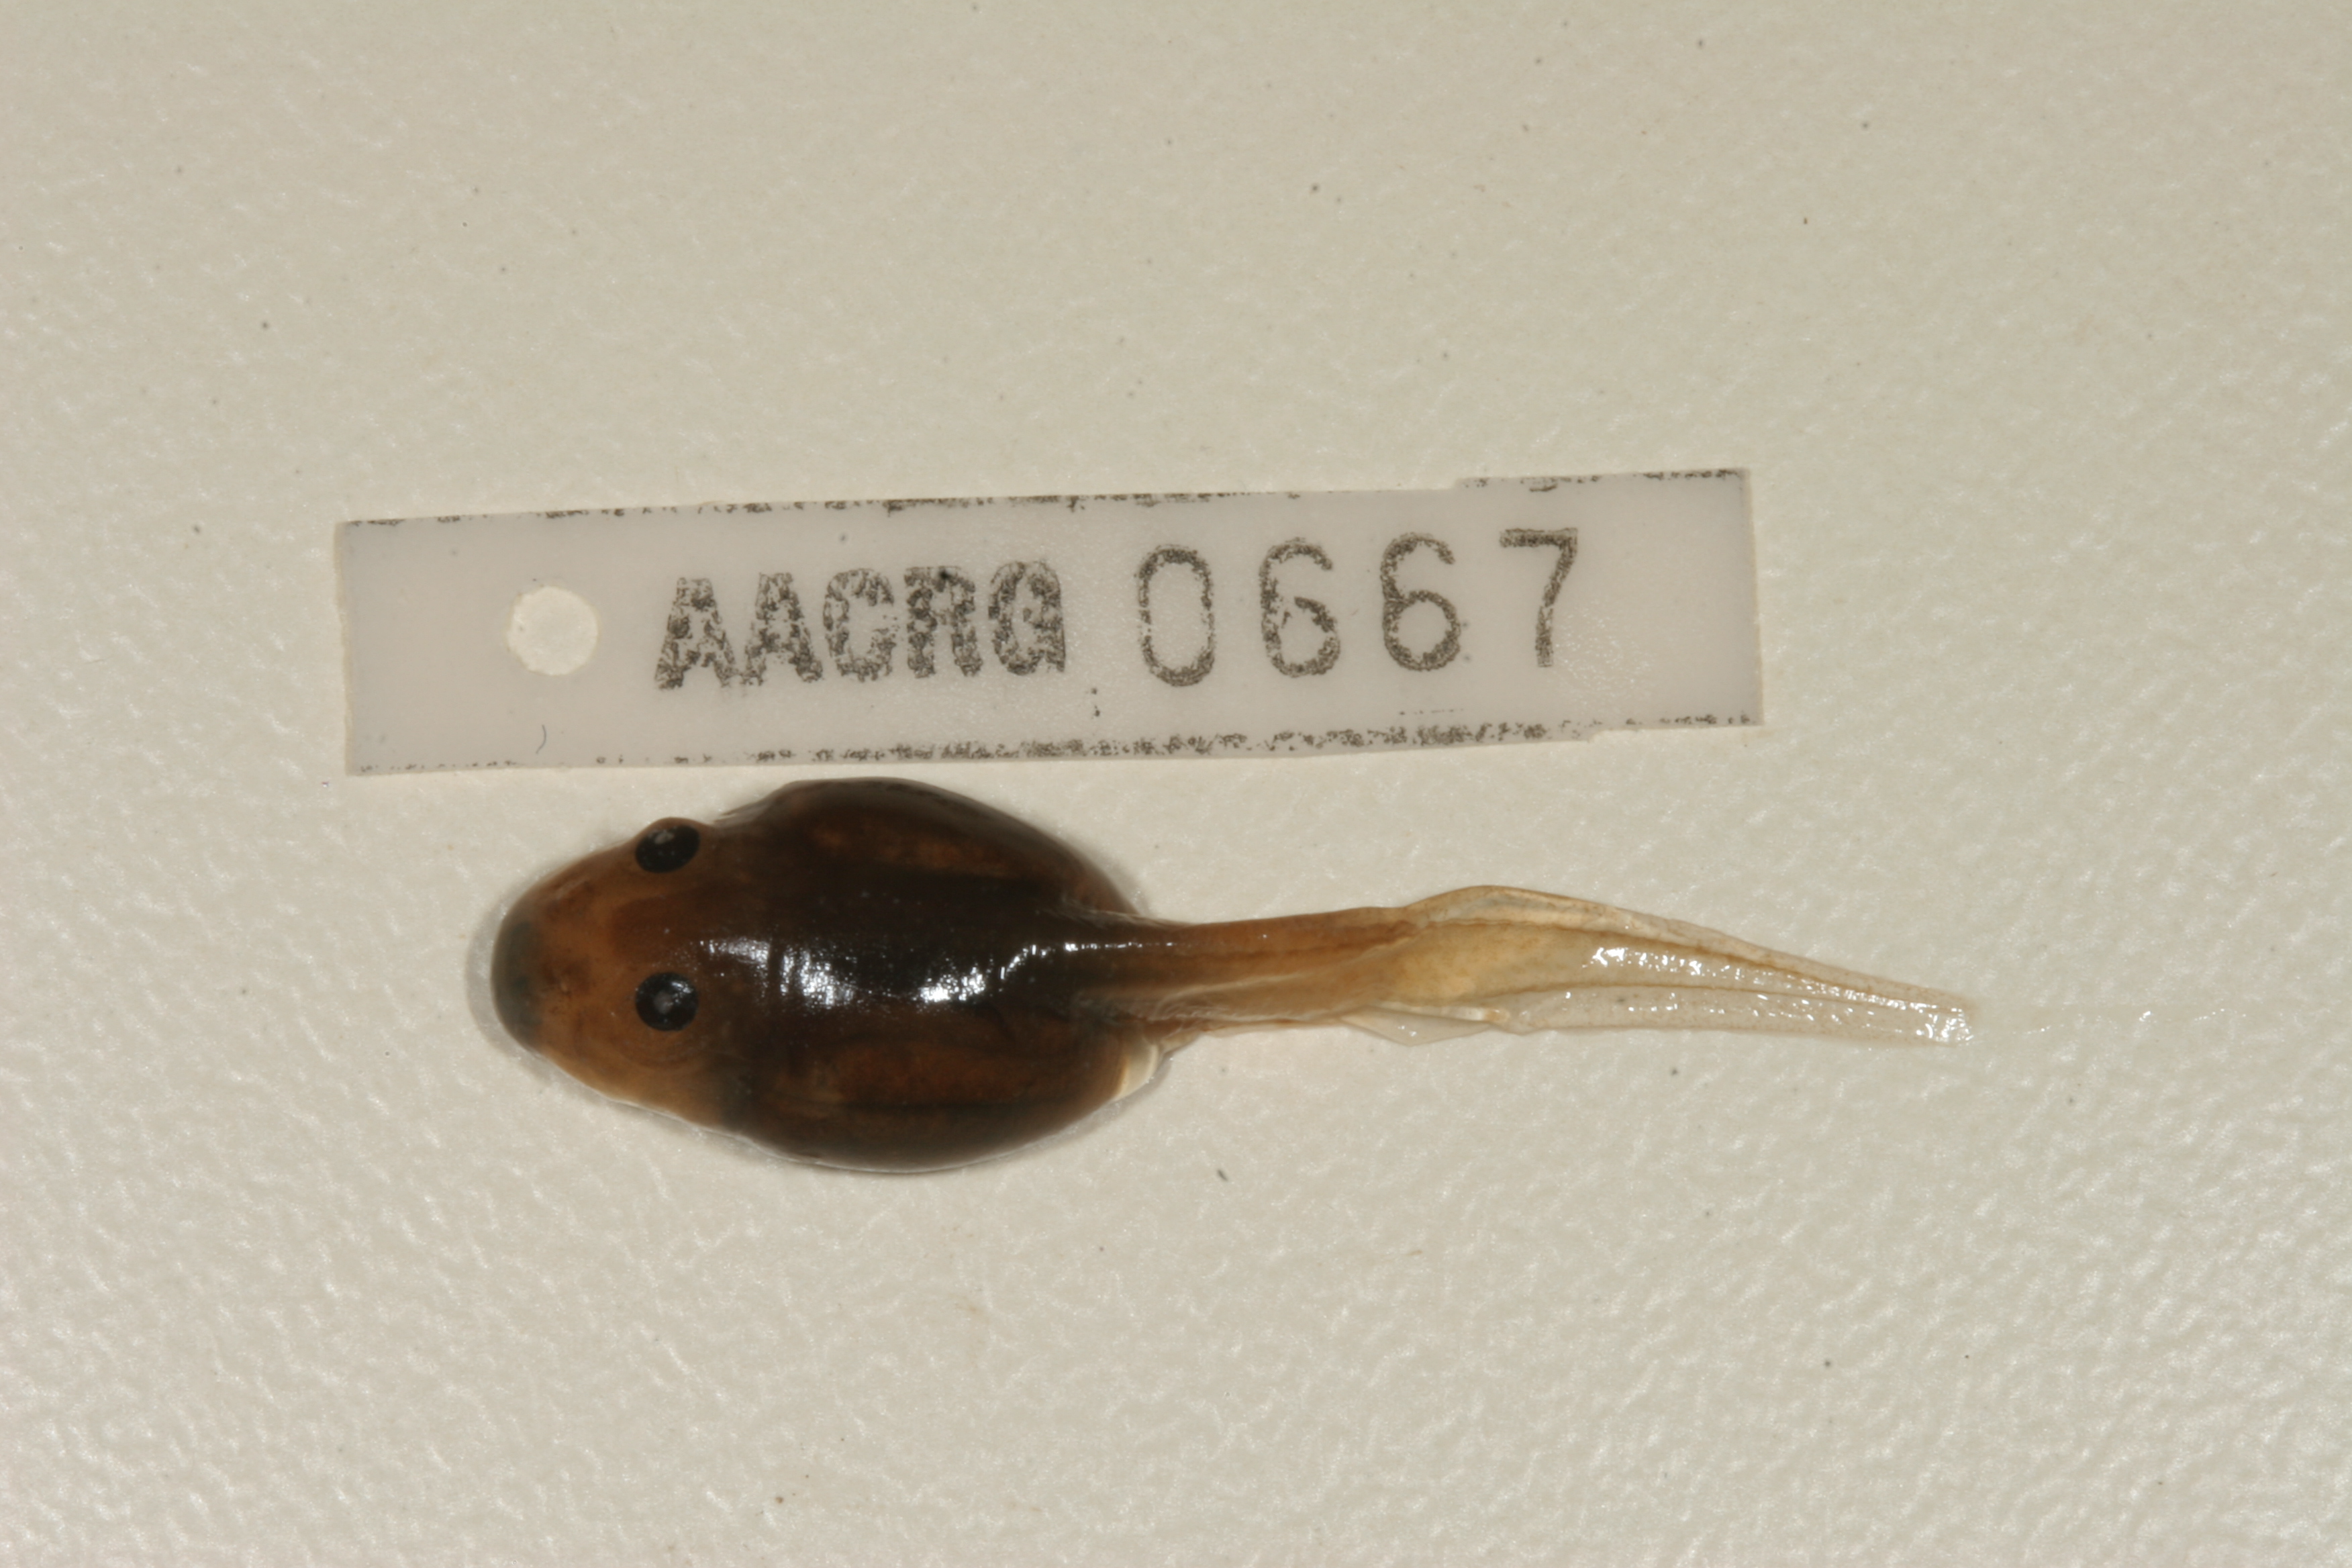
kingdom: Animalia
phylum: Chordata
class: Amphibia
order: Anura
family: Pyxicephalidae
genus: Strongylopus
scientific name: Strongylopus grayii
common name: Gray's stream frog
